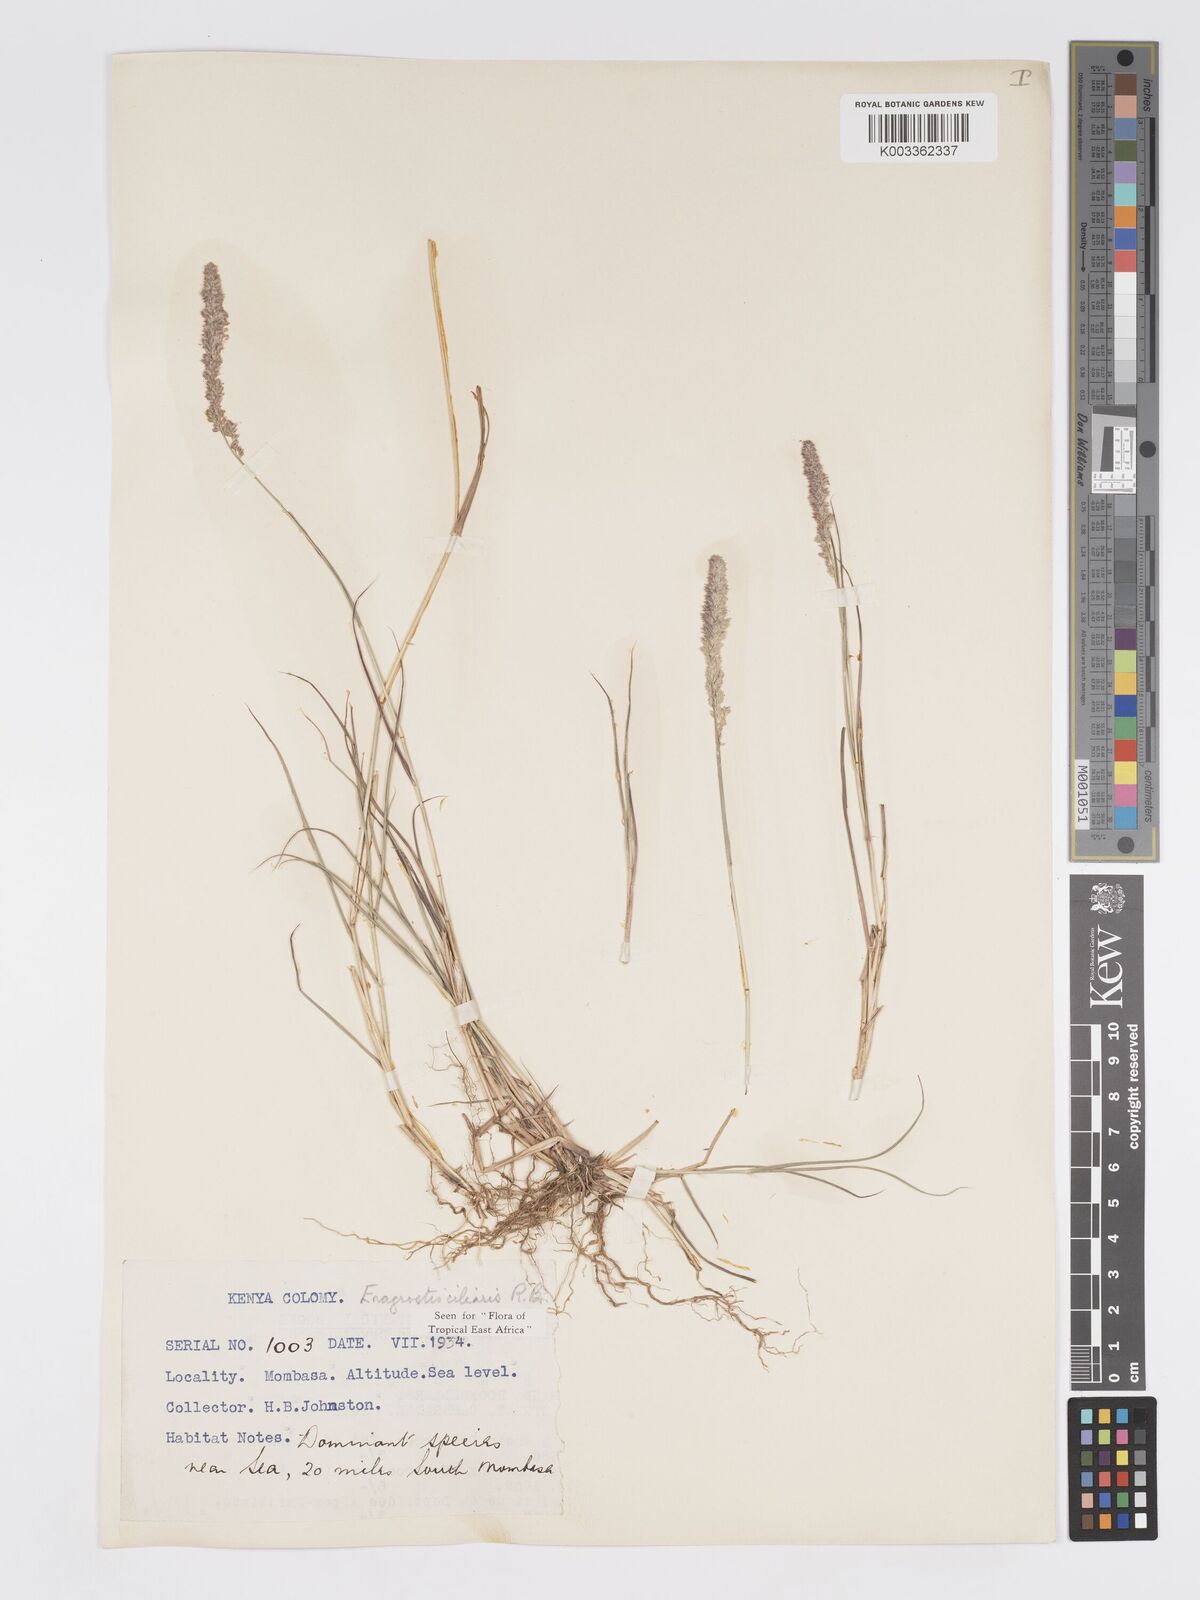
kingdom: Plantae
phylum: Tracheophyta
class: Liliopsida
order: Poales
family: Poaceae
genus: Eragrostis
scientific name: Eragrostis ciliaris
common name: Gophertail lovegrass
